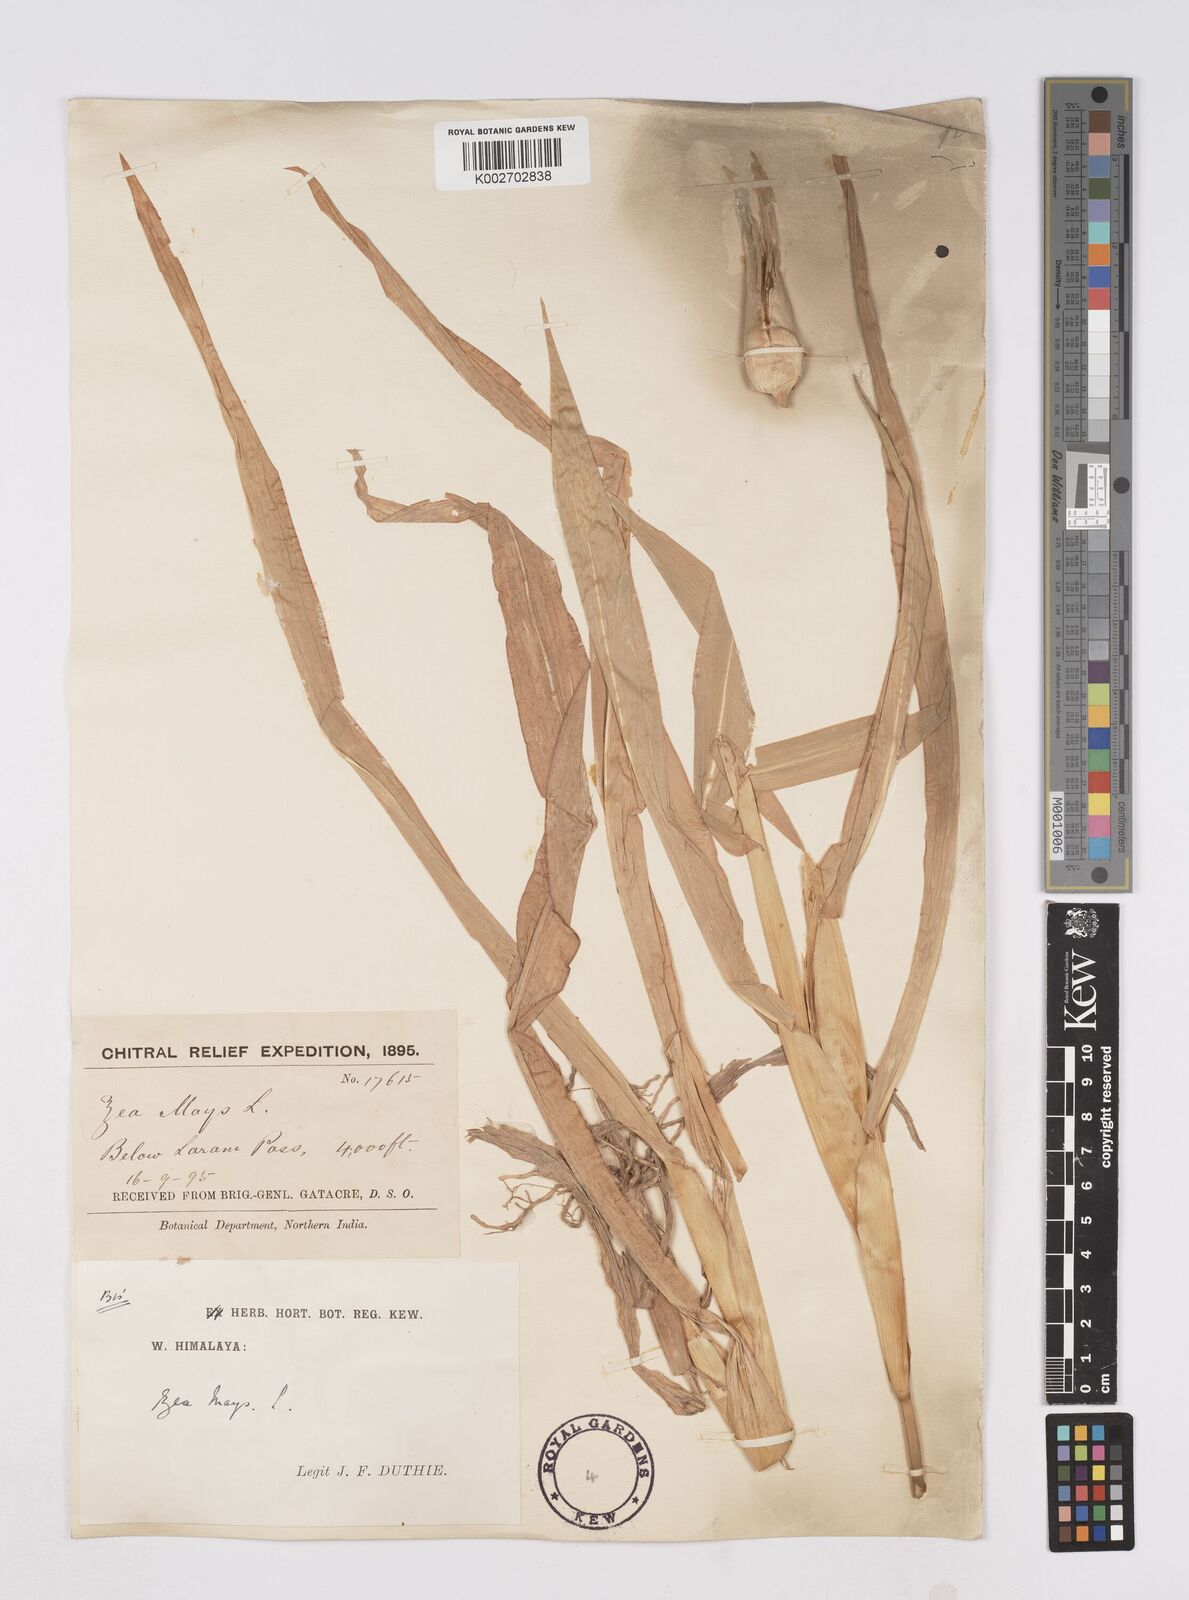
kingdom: Plantae
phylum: Tracheophyta
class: Liliopsida
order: Poales
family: Poaceae
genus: Zea
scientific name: Zea mays
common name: Maize
